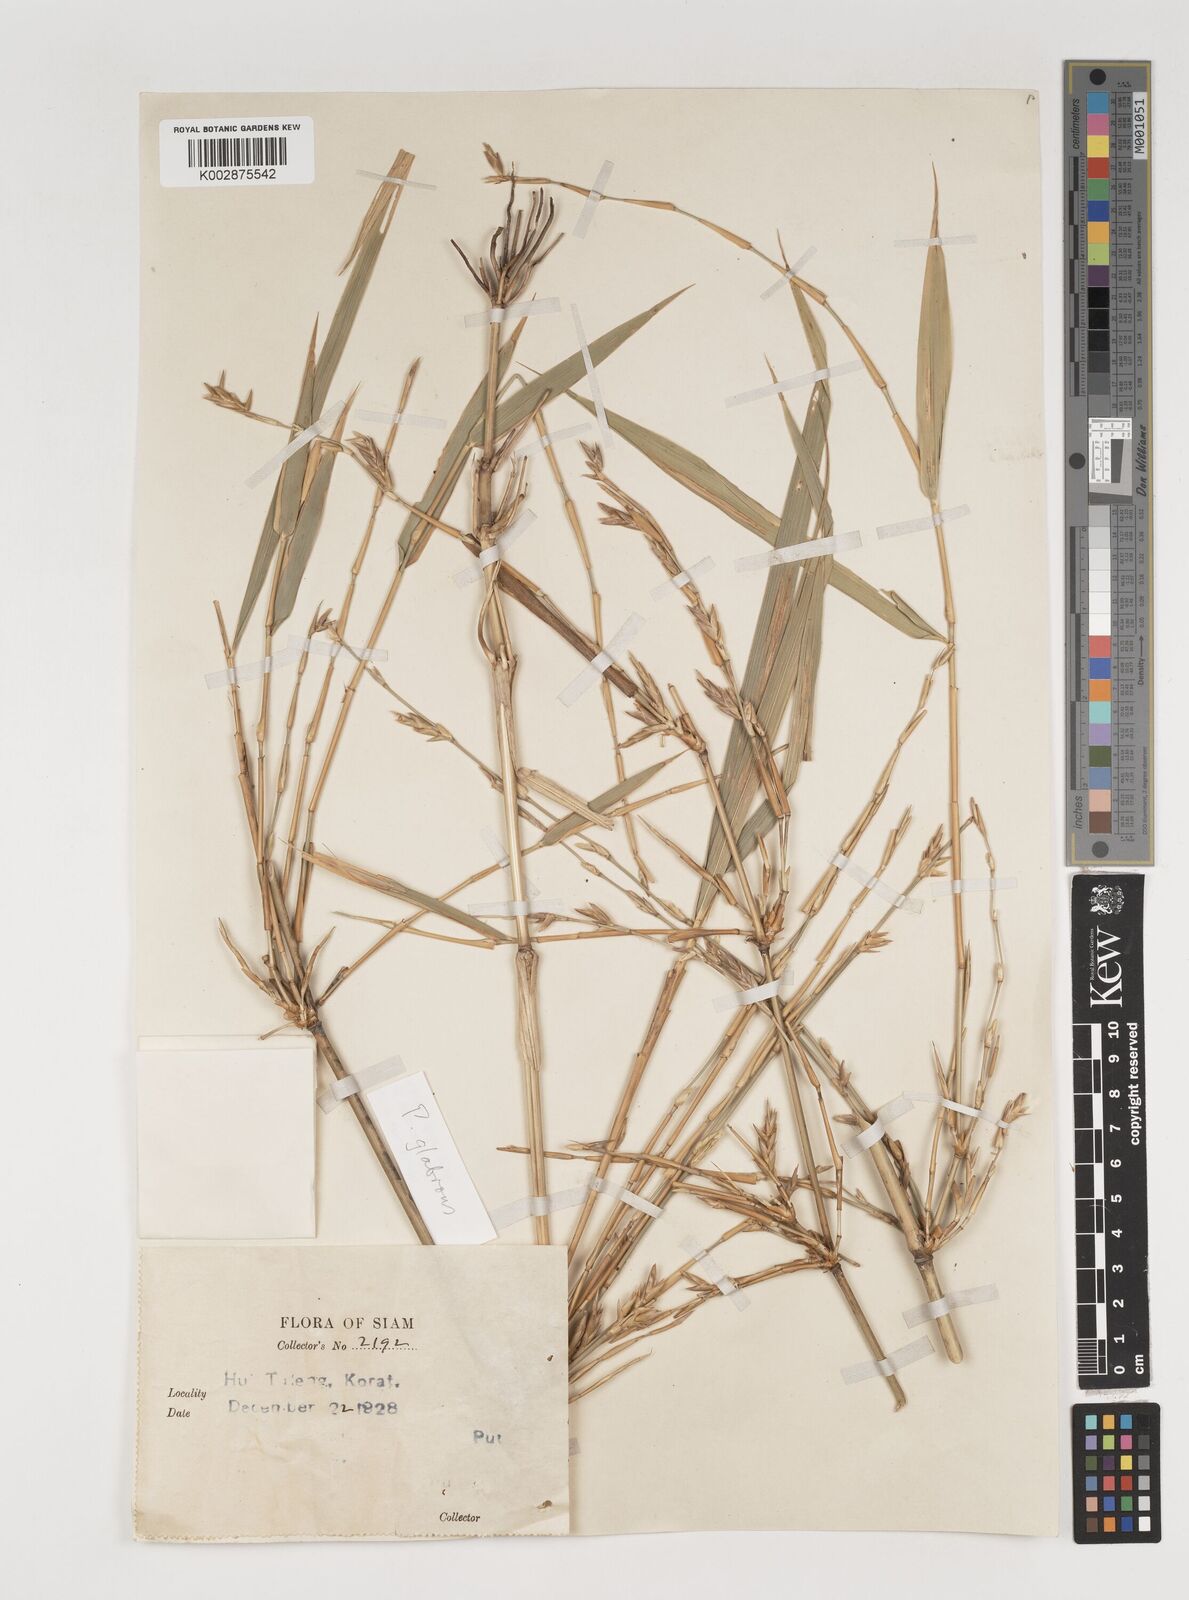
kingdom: Plantae
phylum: Tracheophyta
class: Liliopsida
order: Poales
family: Poaceae
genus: Vietnamosasa
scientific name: Vietnamosasa pusilla
